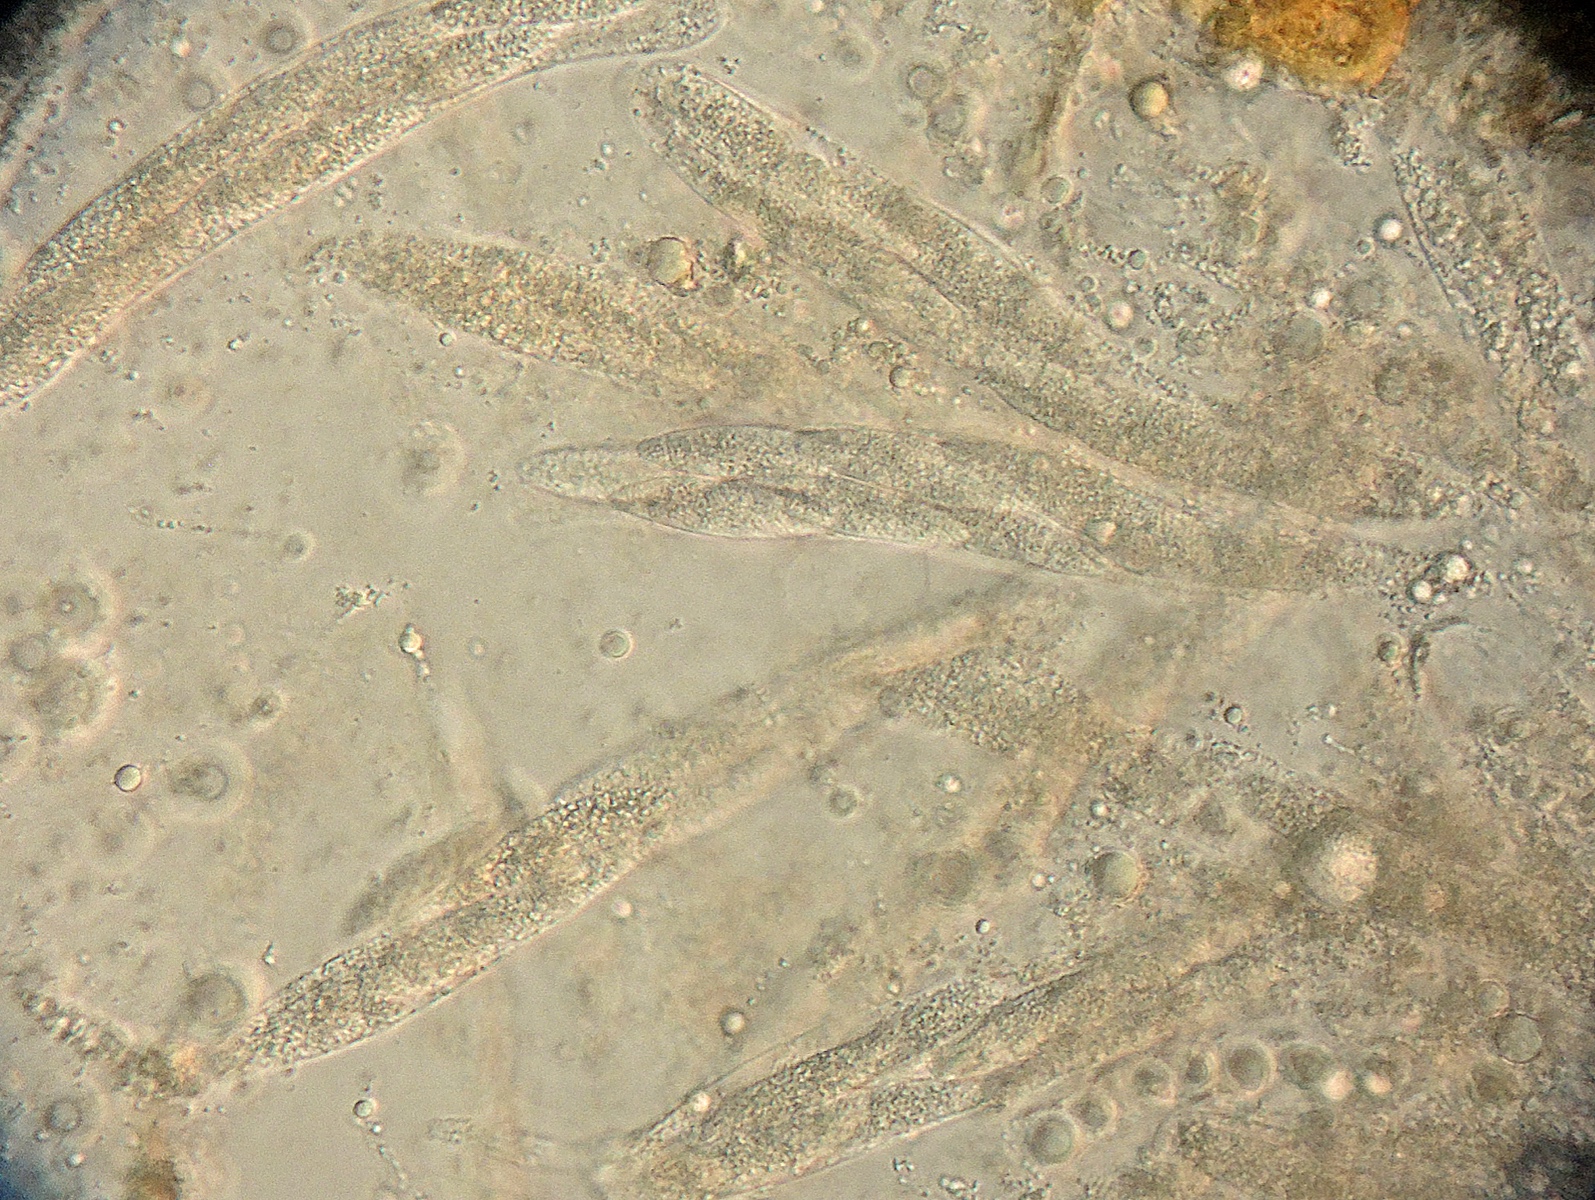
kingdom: Fungi
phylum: Ascomycota
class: Sordariomycetes
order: Diaporthales
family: Gnomoniaceae
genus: Cryptosporella
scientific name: Cryptosporella hypodermia
